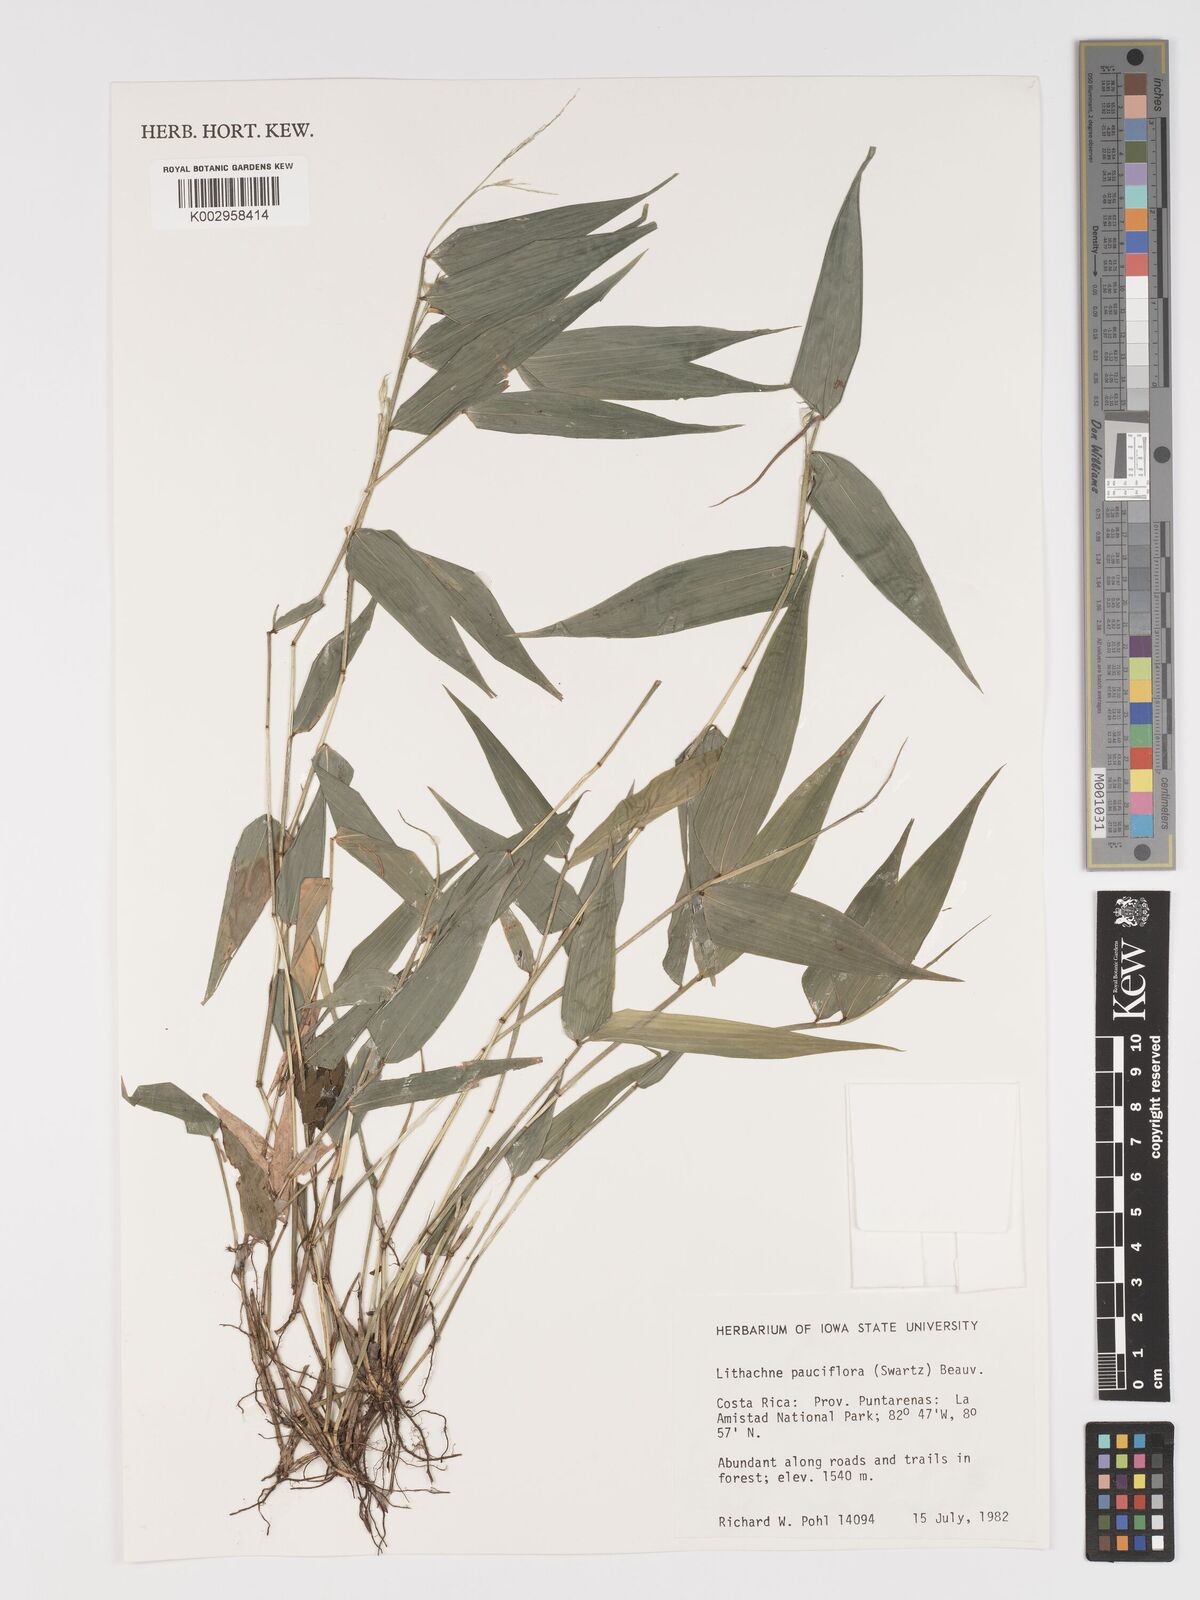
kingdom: Plantae
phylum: Tracheophyta
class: Liliopsida
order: Poales
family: Poaceae
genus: Lithachne
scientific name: Lithachne pauciflora
